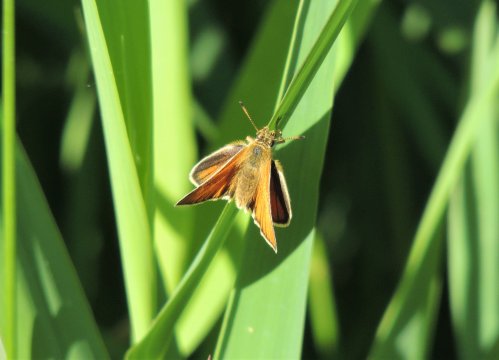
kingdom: Animalia
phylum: Arthropoda
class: Insecta
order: Lepidoptera
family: Hesperiidae
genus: Thymelicus
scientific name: Thymelicus lineola
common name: European Skipper
